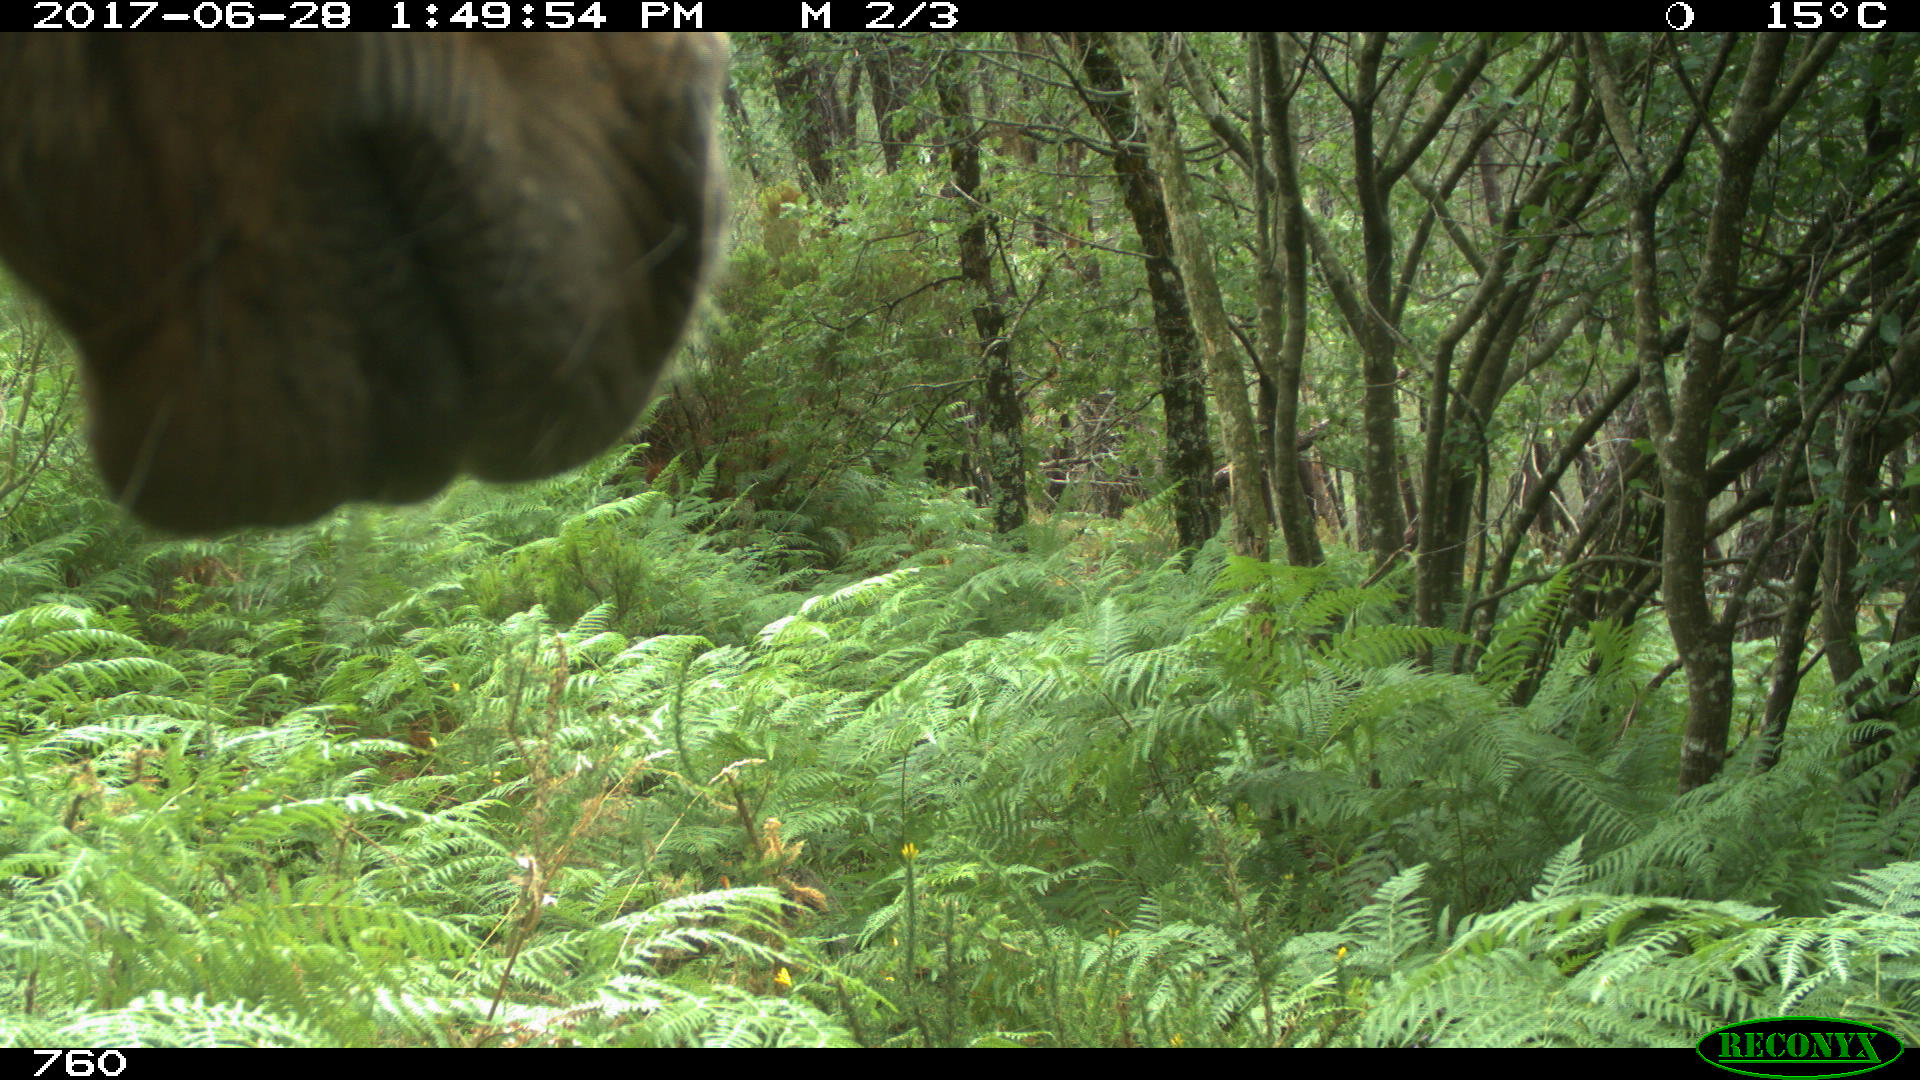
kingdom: Animalia
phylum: Chordata
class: Mammalia
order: Perissodactyla
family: Equidae
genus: Equus
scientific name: Equus caballus
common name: Horse
